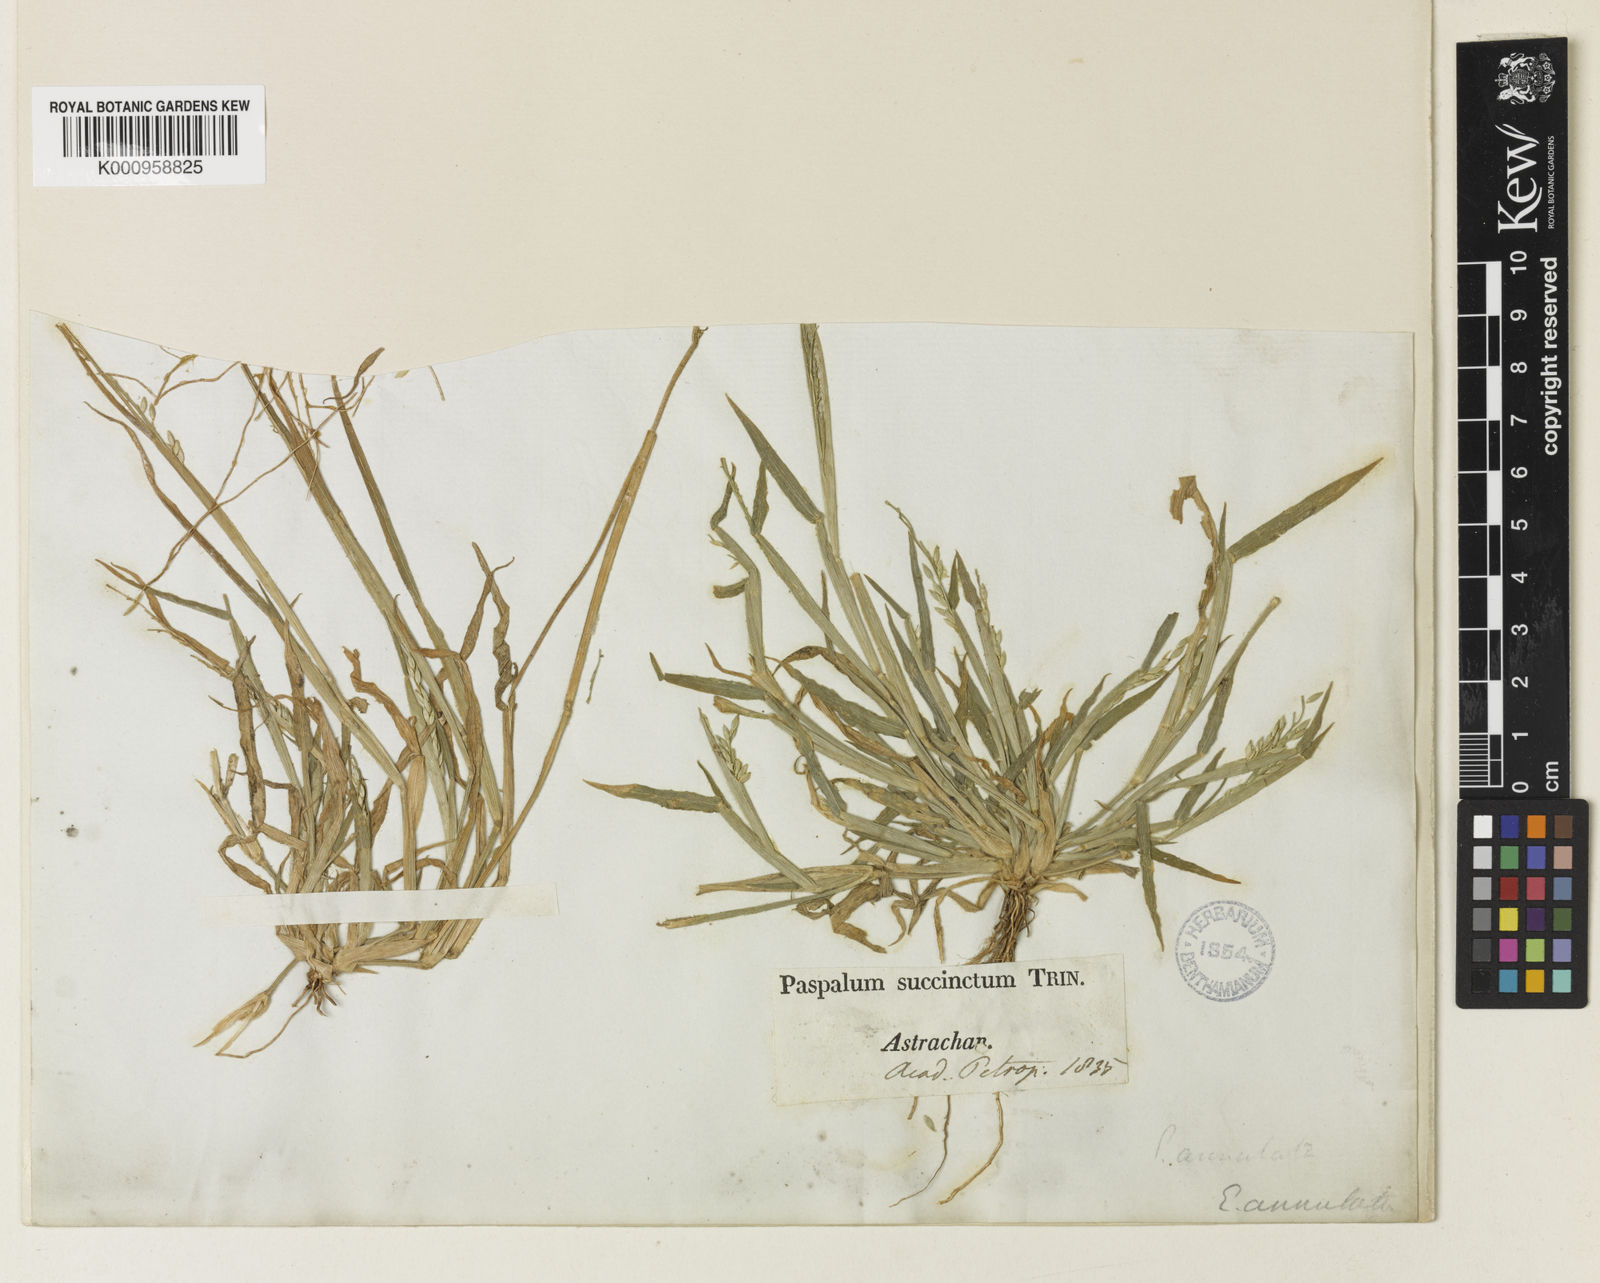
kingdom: Plantae
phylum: Tracheophyta
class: Liliopsida
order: Poales
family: Poaceae
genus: Eriochloa
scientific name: Eriochloa succincta
